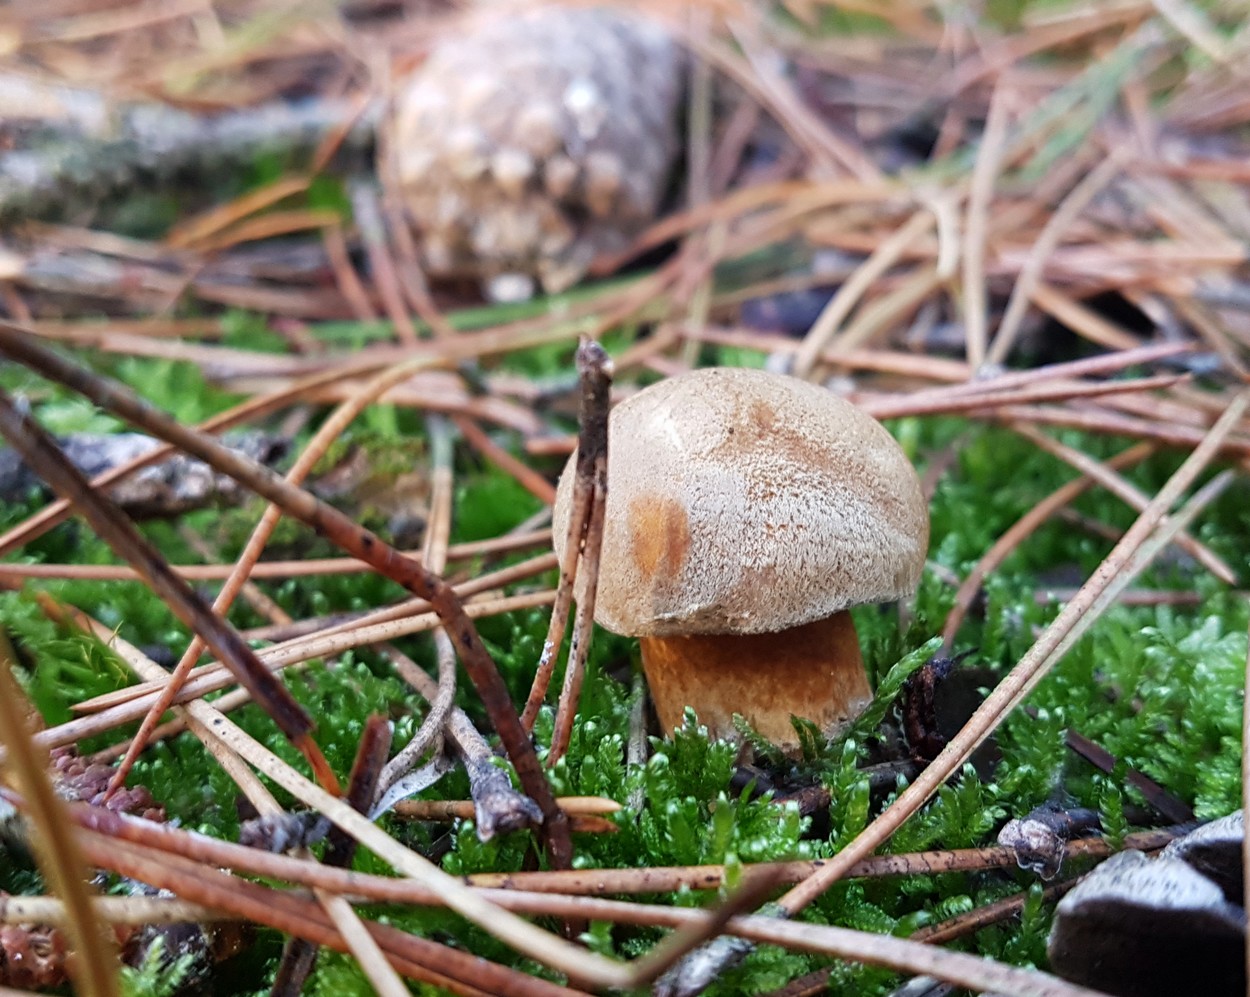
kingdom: Fungi
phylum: Basidiomycota
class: Agaricomycetes
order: Boletales
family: Suillaceae
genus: Suillus
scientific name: Suillus variegatus
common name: broget slimrørhat
